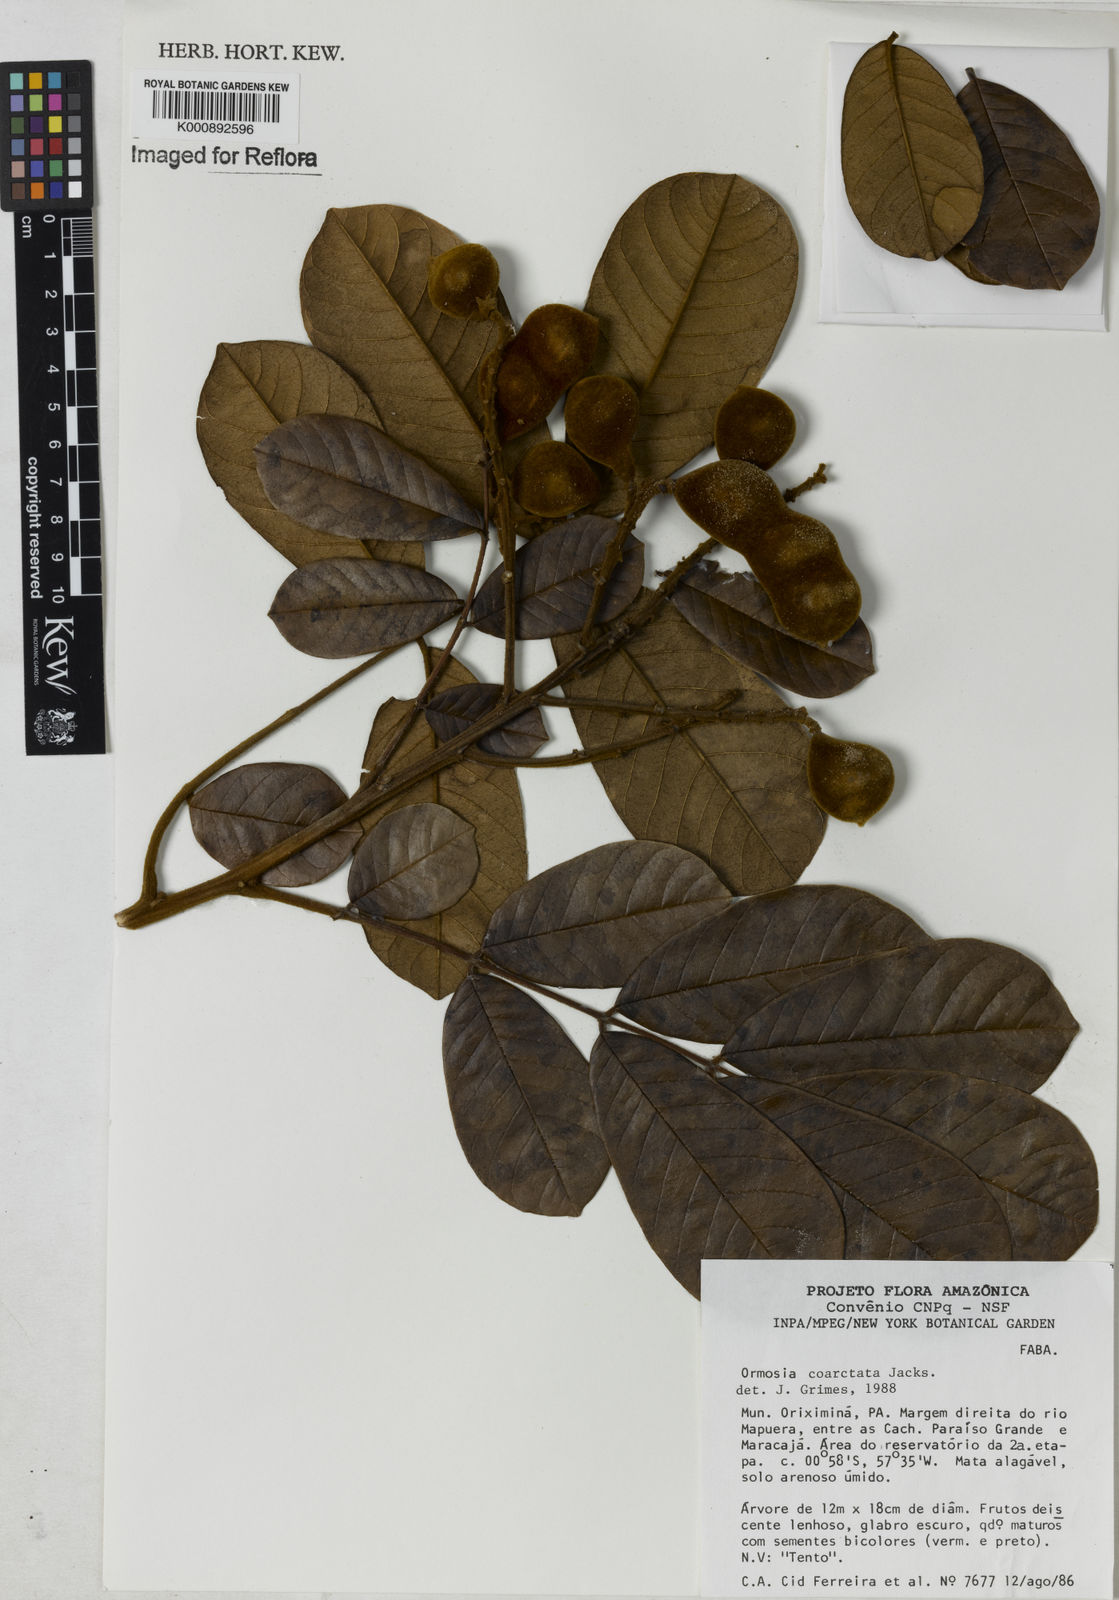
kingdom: Plantae
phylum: Tracheophyta
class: Magnoliopsida
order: Fabales
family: Fabaceae
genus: Ormosia
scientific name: Ormosia coarctata
